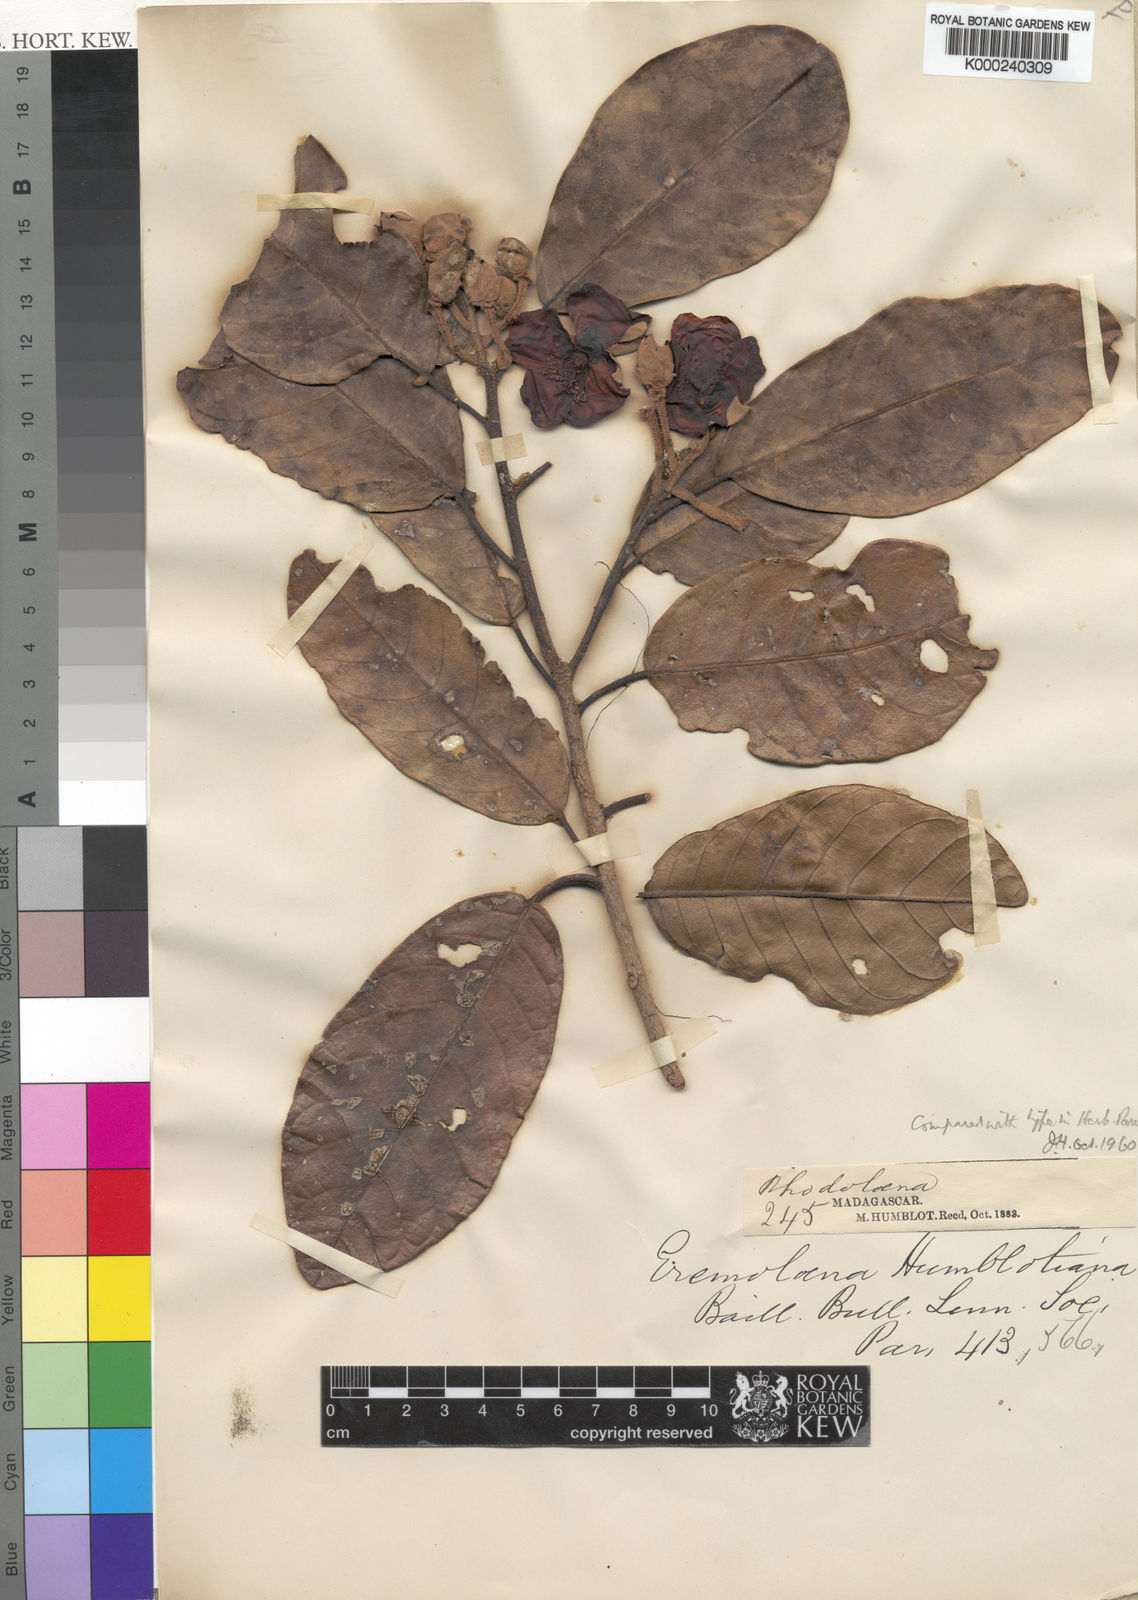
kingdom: Plantae
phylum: Tracheophyta
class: Magnoliopsida
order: Malvales
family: Sarcolaenaceae
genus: Eremolaena
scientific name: Eremolaena humblotiana
